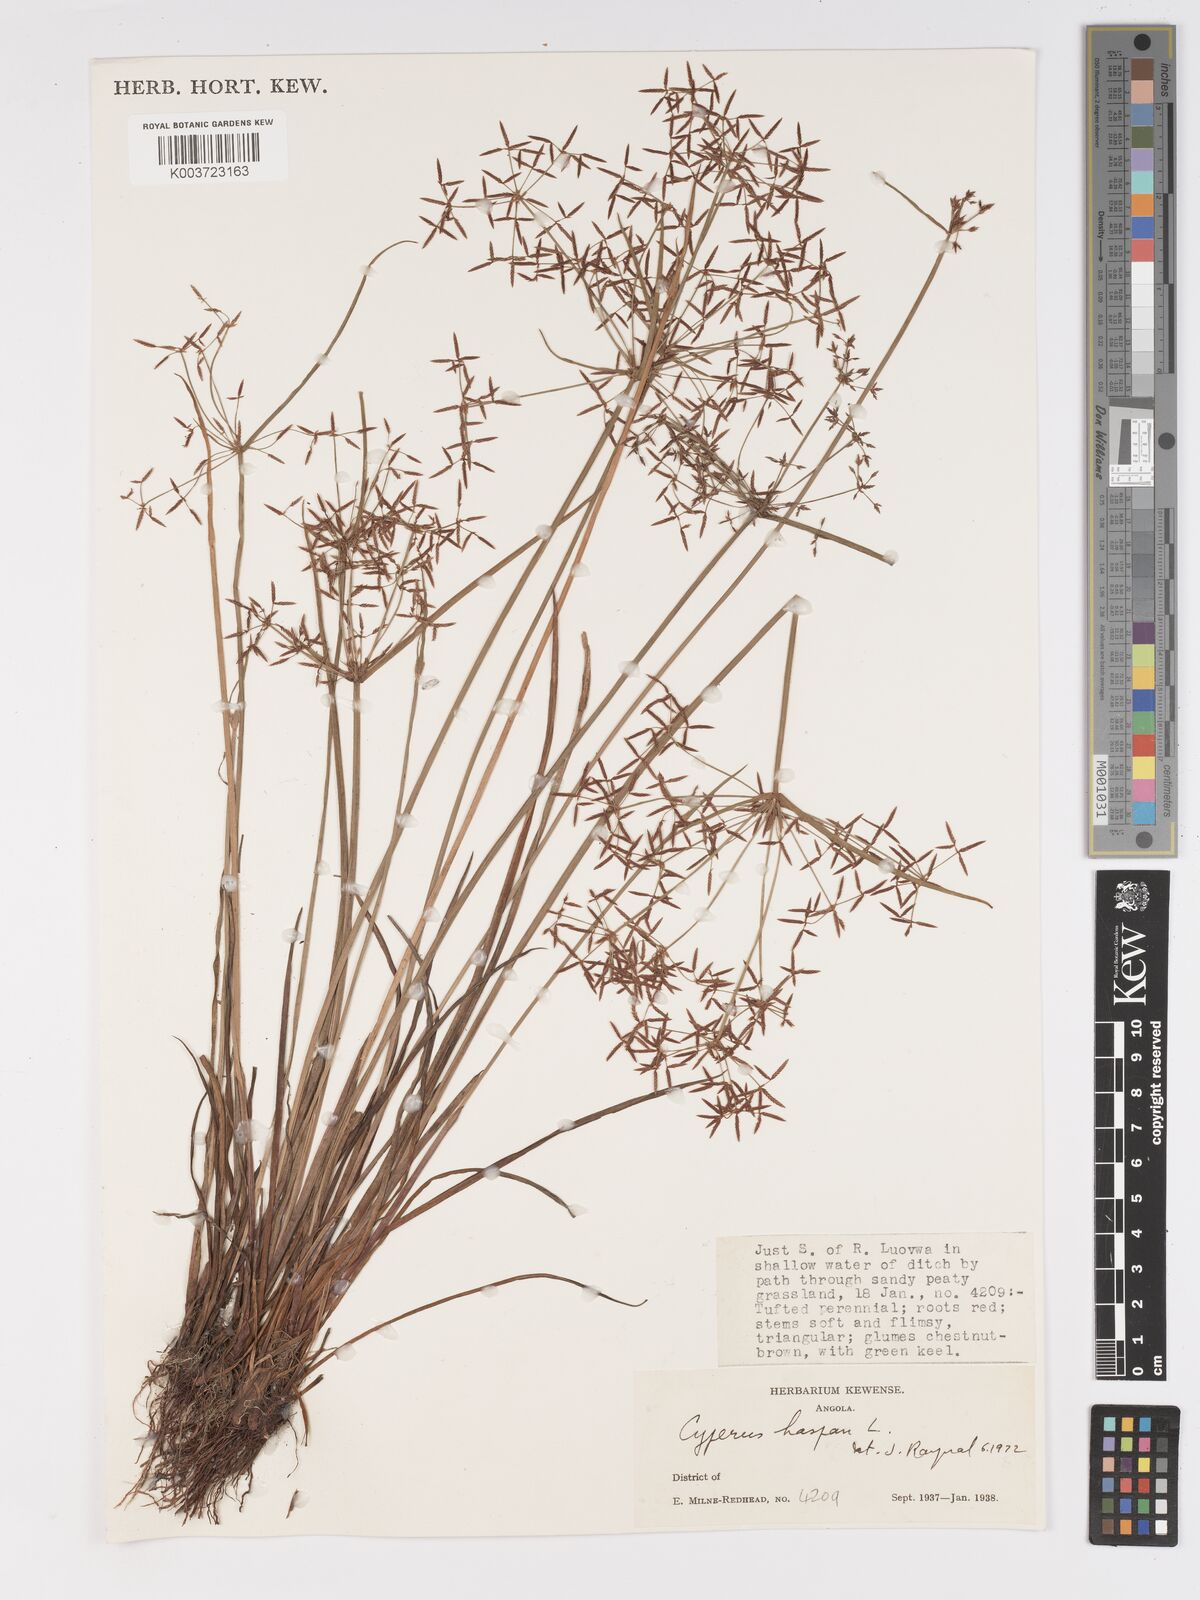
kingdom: Plantae
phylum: Tracheophyta
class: Liliopsida
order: Poales
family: Cyperaceae
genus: Cyperus
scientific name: Cyperus haspan
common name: Haspan flatsedge
